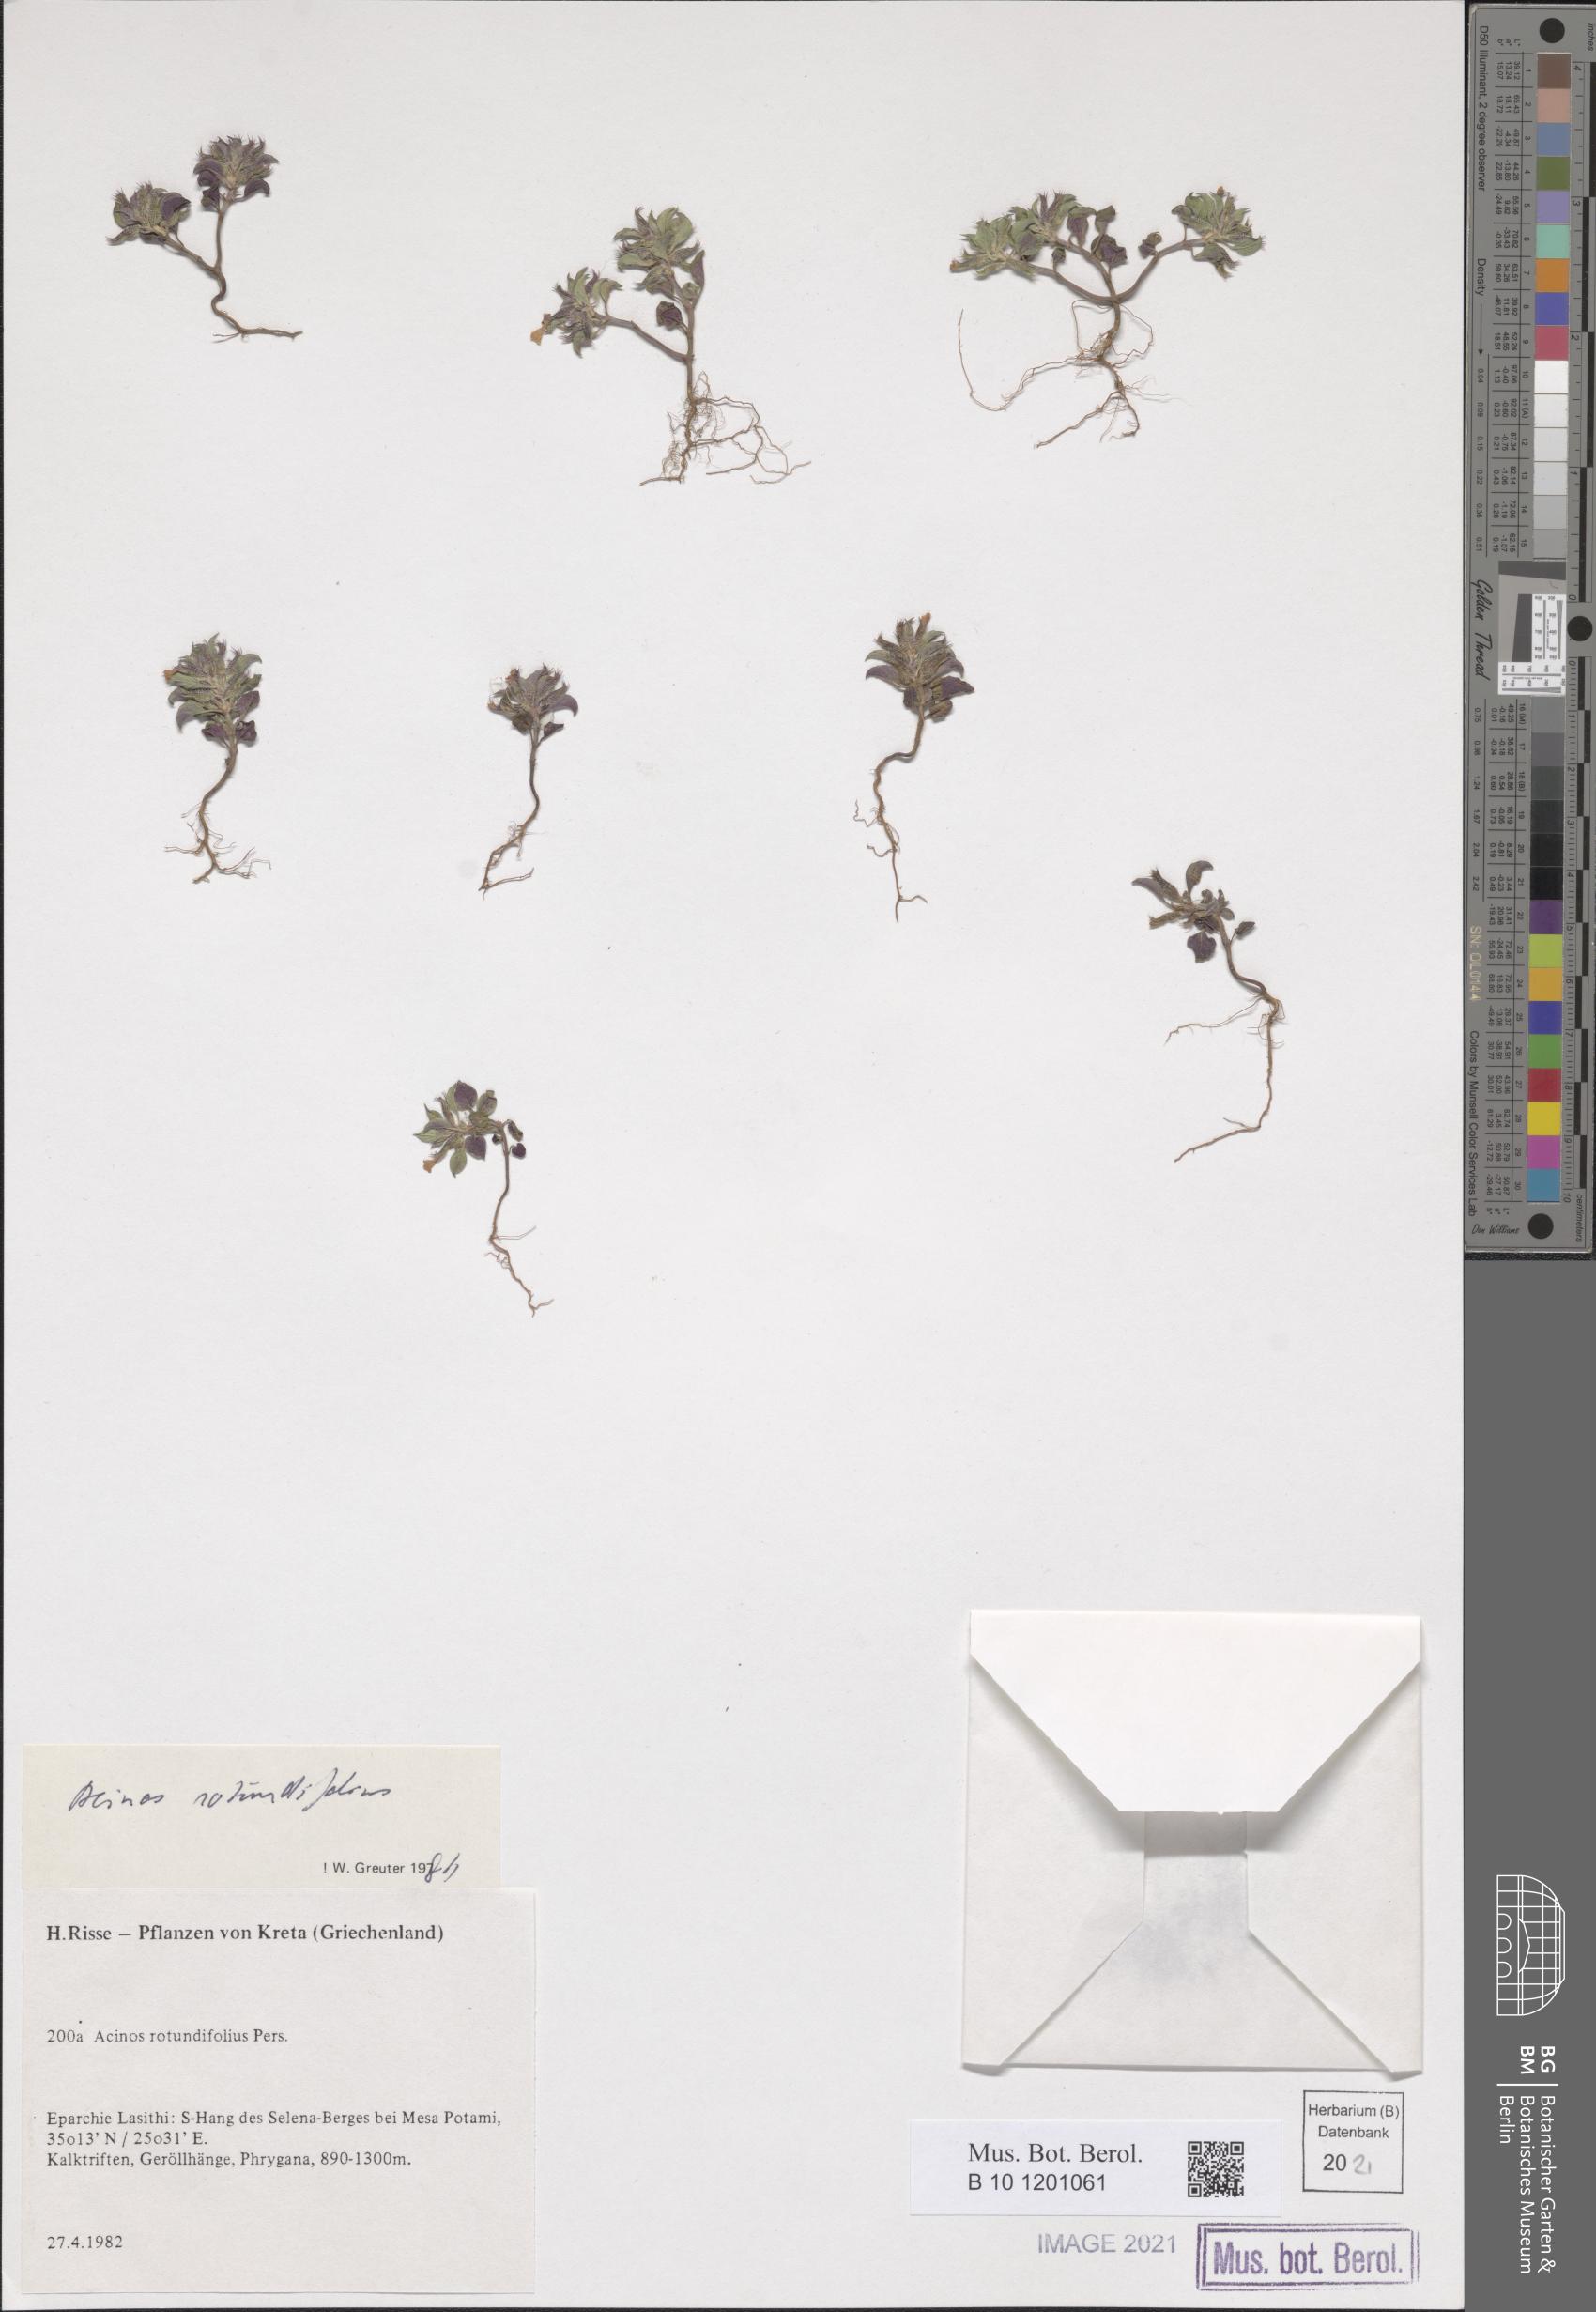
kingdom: Plantae
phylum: Tracheophyta
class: Magnoliopsida
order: Lamiales
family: Lamiaceae
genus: Clinopodium
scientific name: Clinopodium graveolens
